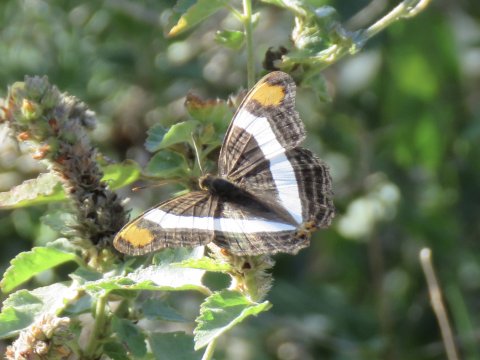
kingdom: Animalia
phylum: Arthropoda
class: Insecta
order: Lepidoptera
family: Nymphalidae
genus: Limenitis
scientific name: Limenitis fessonia
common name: Band-celled Sister
